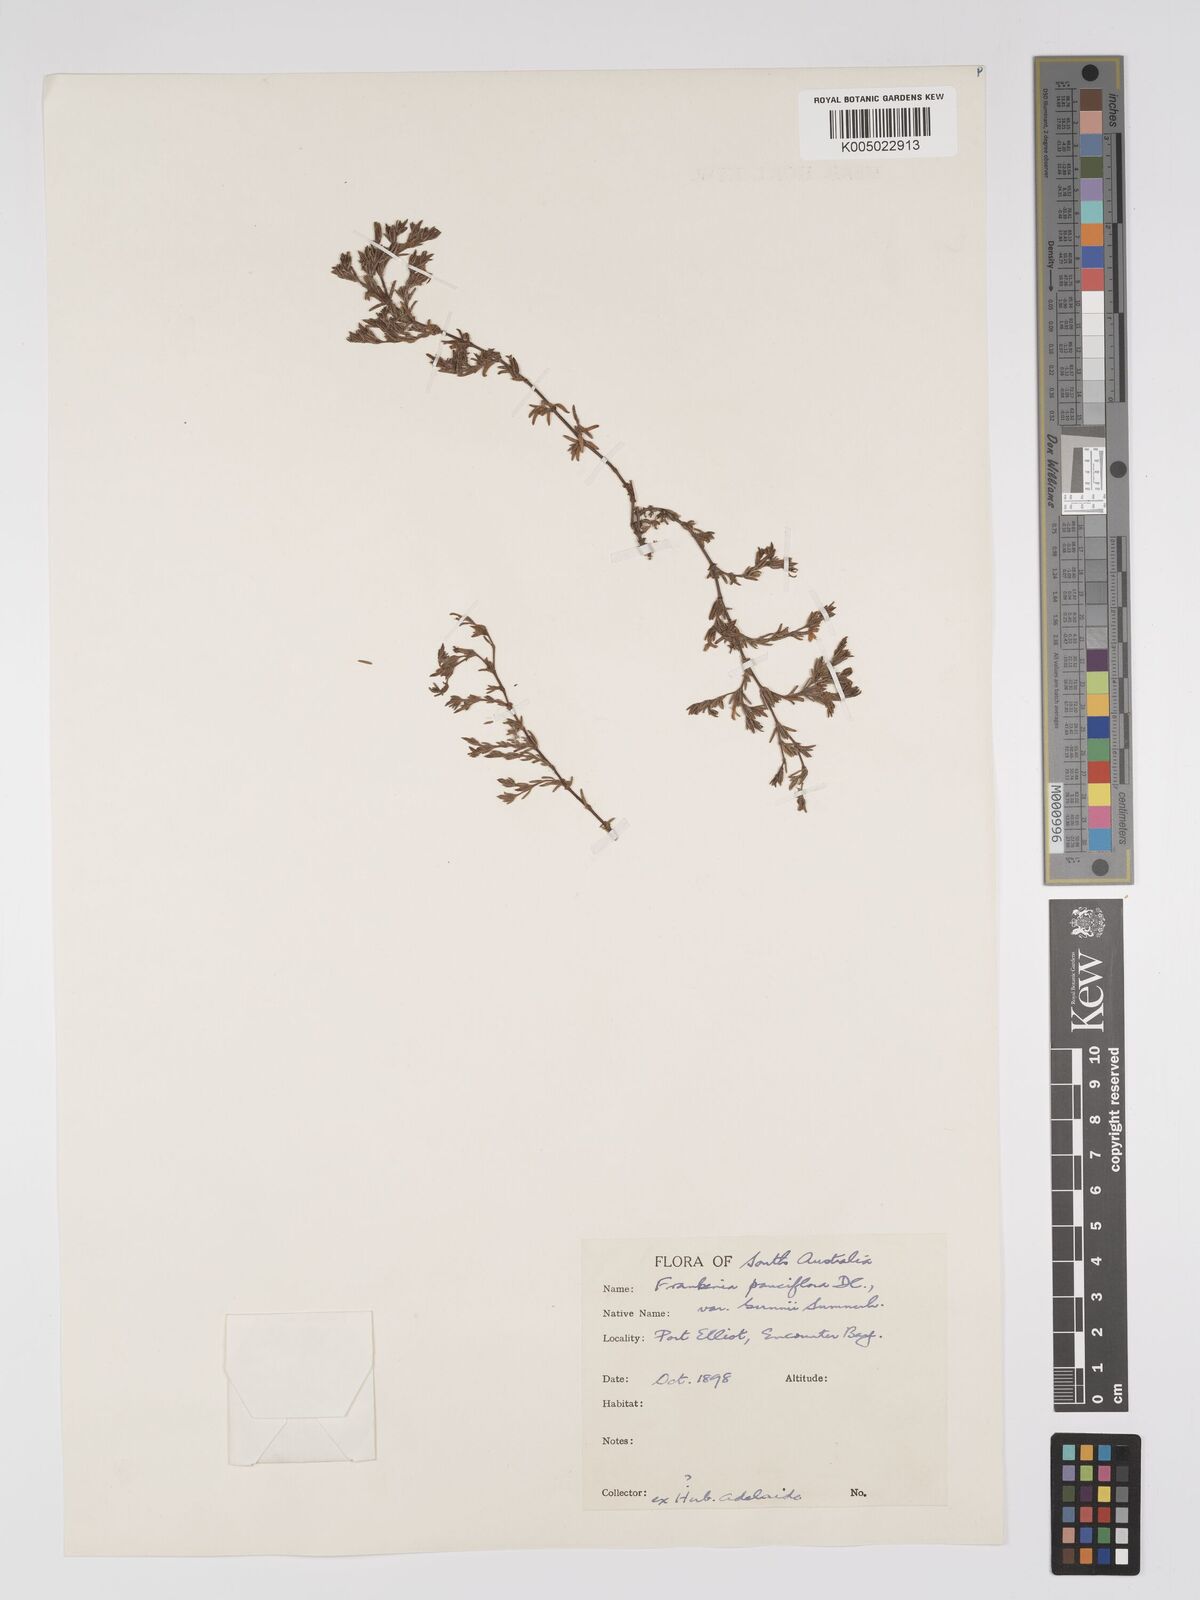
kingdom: Plantae
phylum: Tracheophyta
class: Magnoliopsida
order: Caryophyllales
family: Frankeniaceae
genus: Frankenia
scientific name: Frankenia pauciflora
